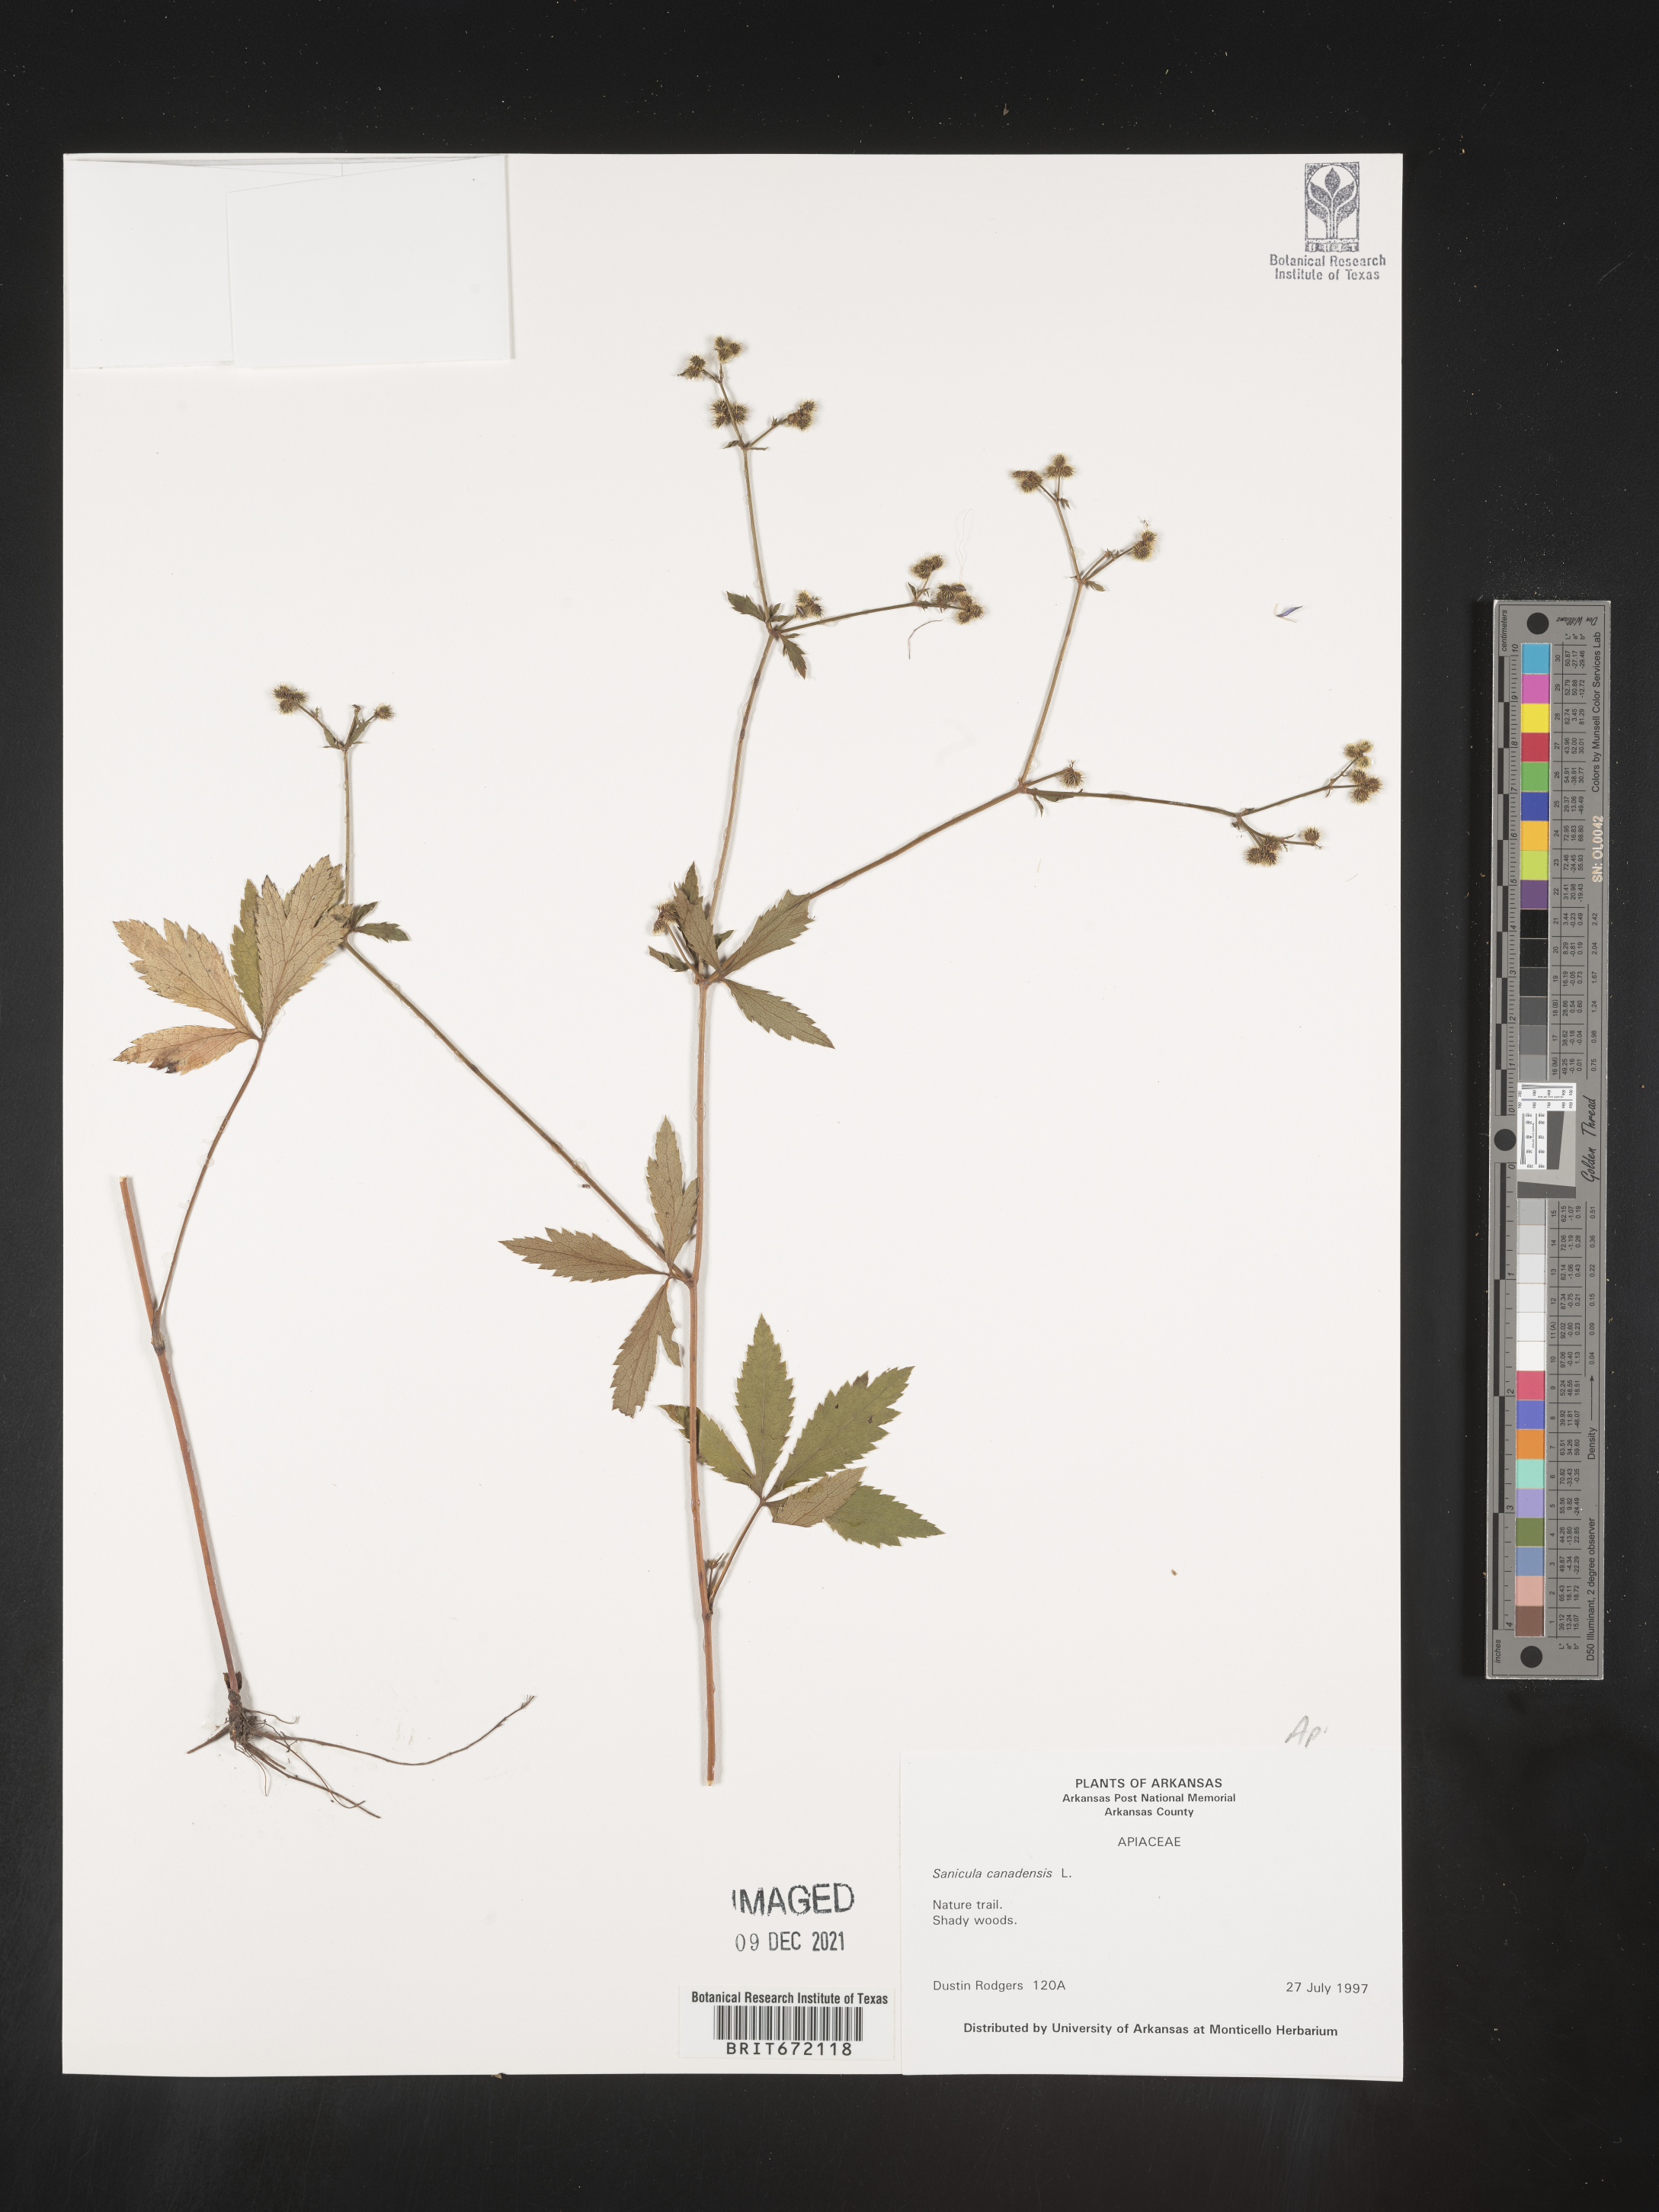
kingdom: Plantae
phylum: Tracheophyta
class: Magnoliopsida
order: Apiales
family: Apiaceae
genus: Sanicula
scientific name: Sanicula canadensis
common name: Canada sanicle
